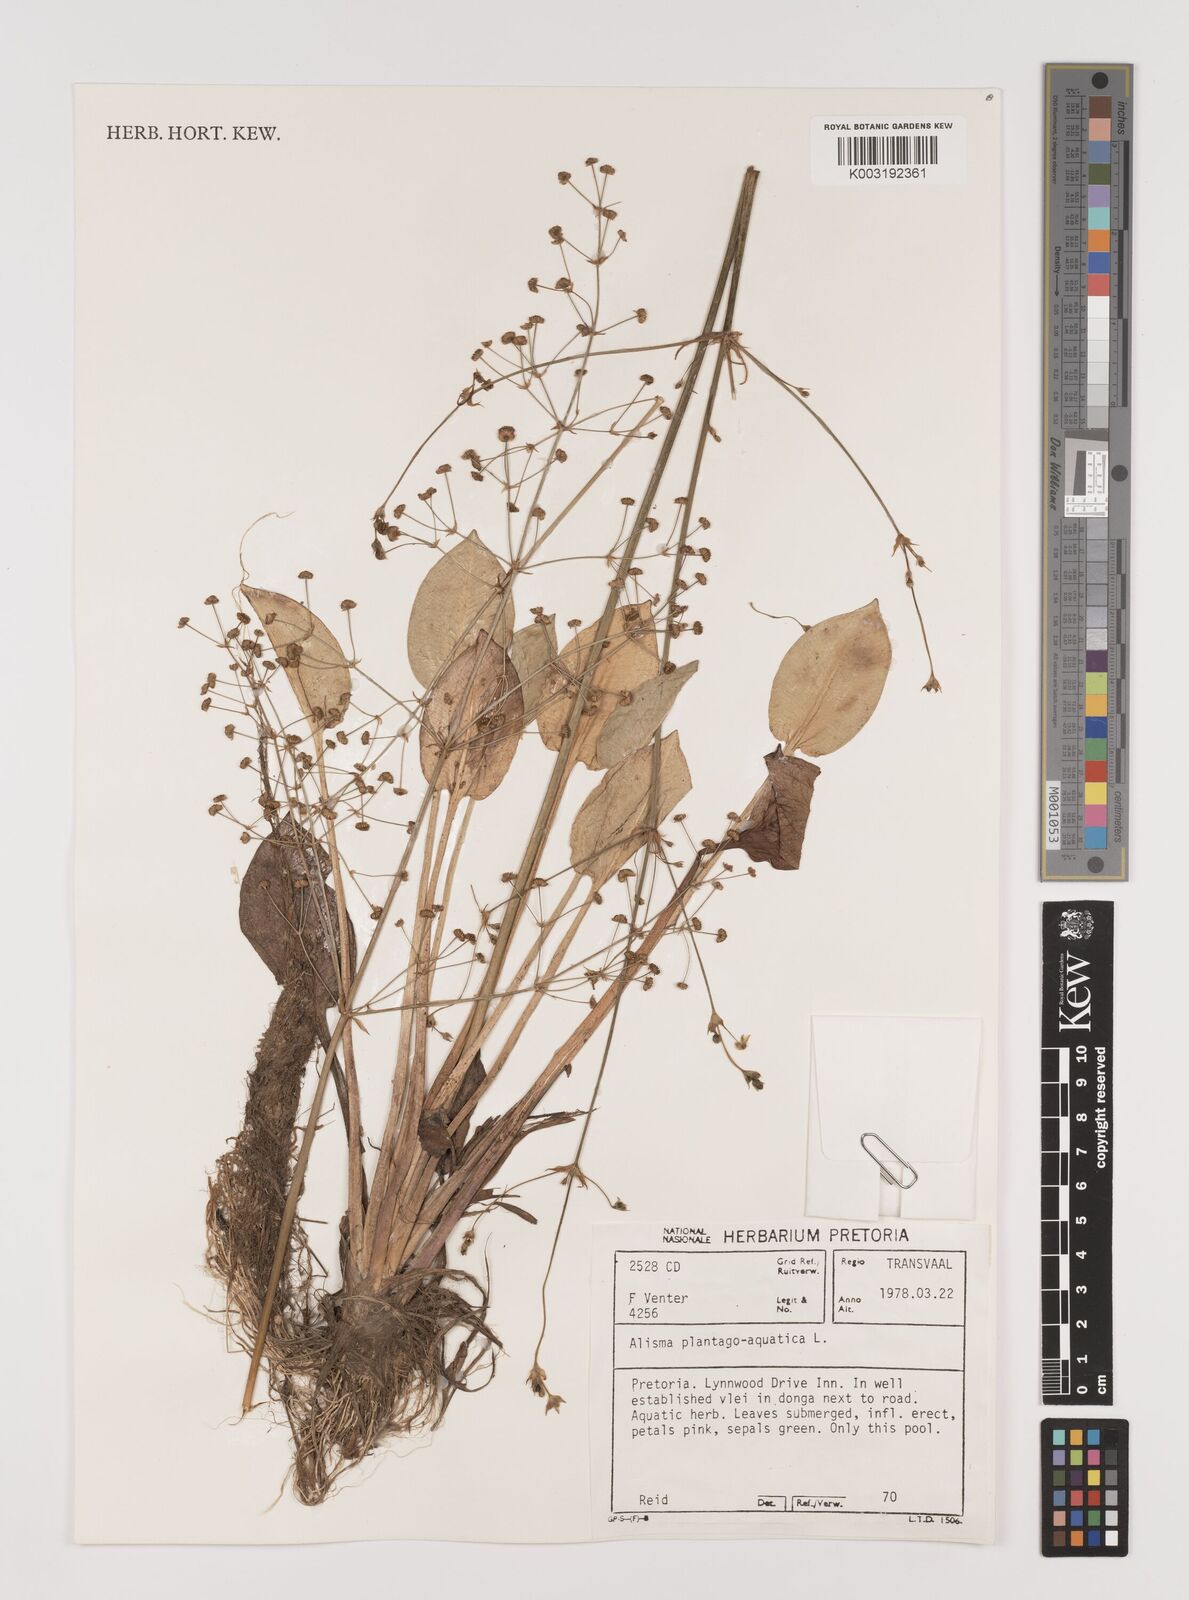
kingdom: Plantae
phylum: Tracheophyta
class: Liliopsida
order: Alismatales
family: Alismataceae
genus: Alisma
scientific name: Alisma plantago-aquatica
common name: Water-plantain
